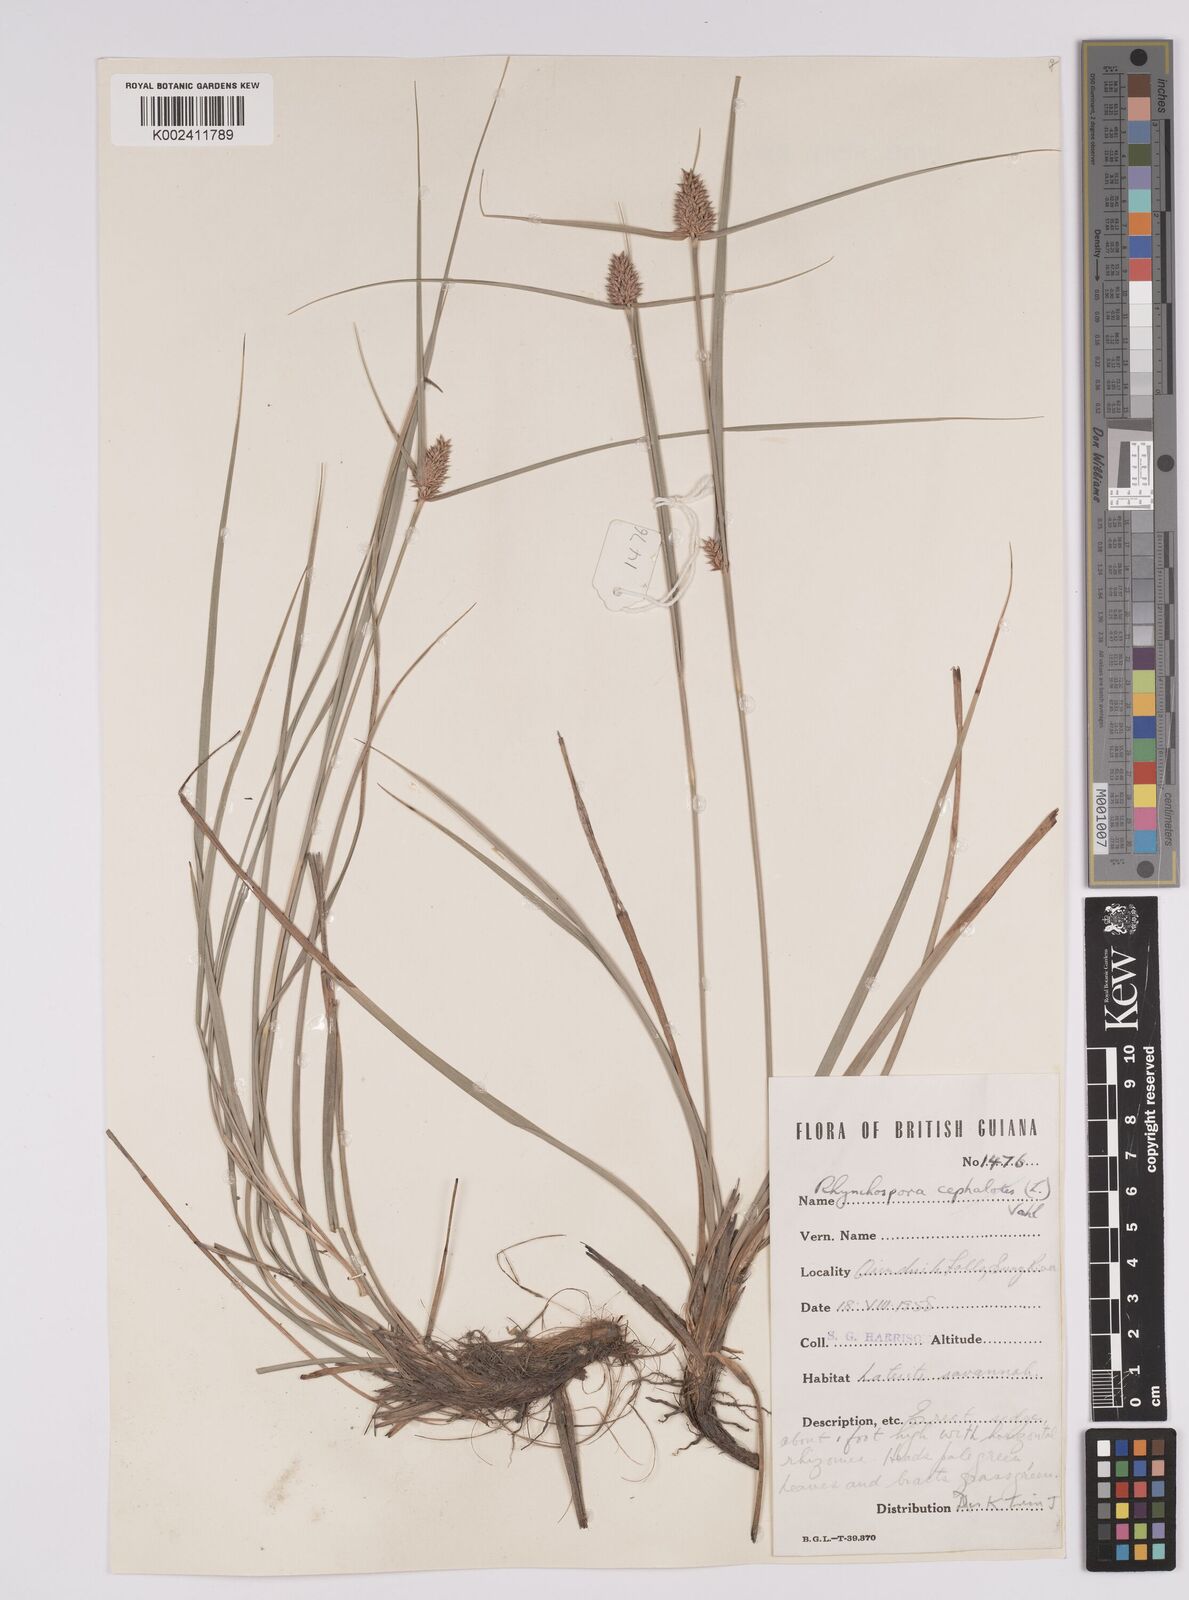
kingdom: Plantae
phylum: Tracheophyta
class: Liliopsida
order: Poales
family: Cyperaceae
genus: Rhynchospora
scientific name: Rhynchospora cephalotes
